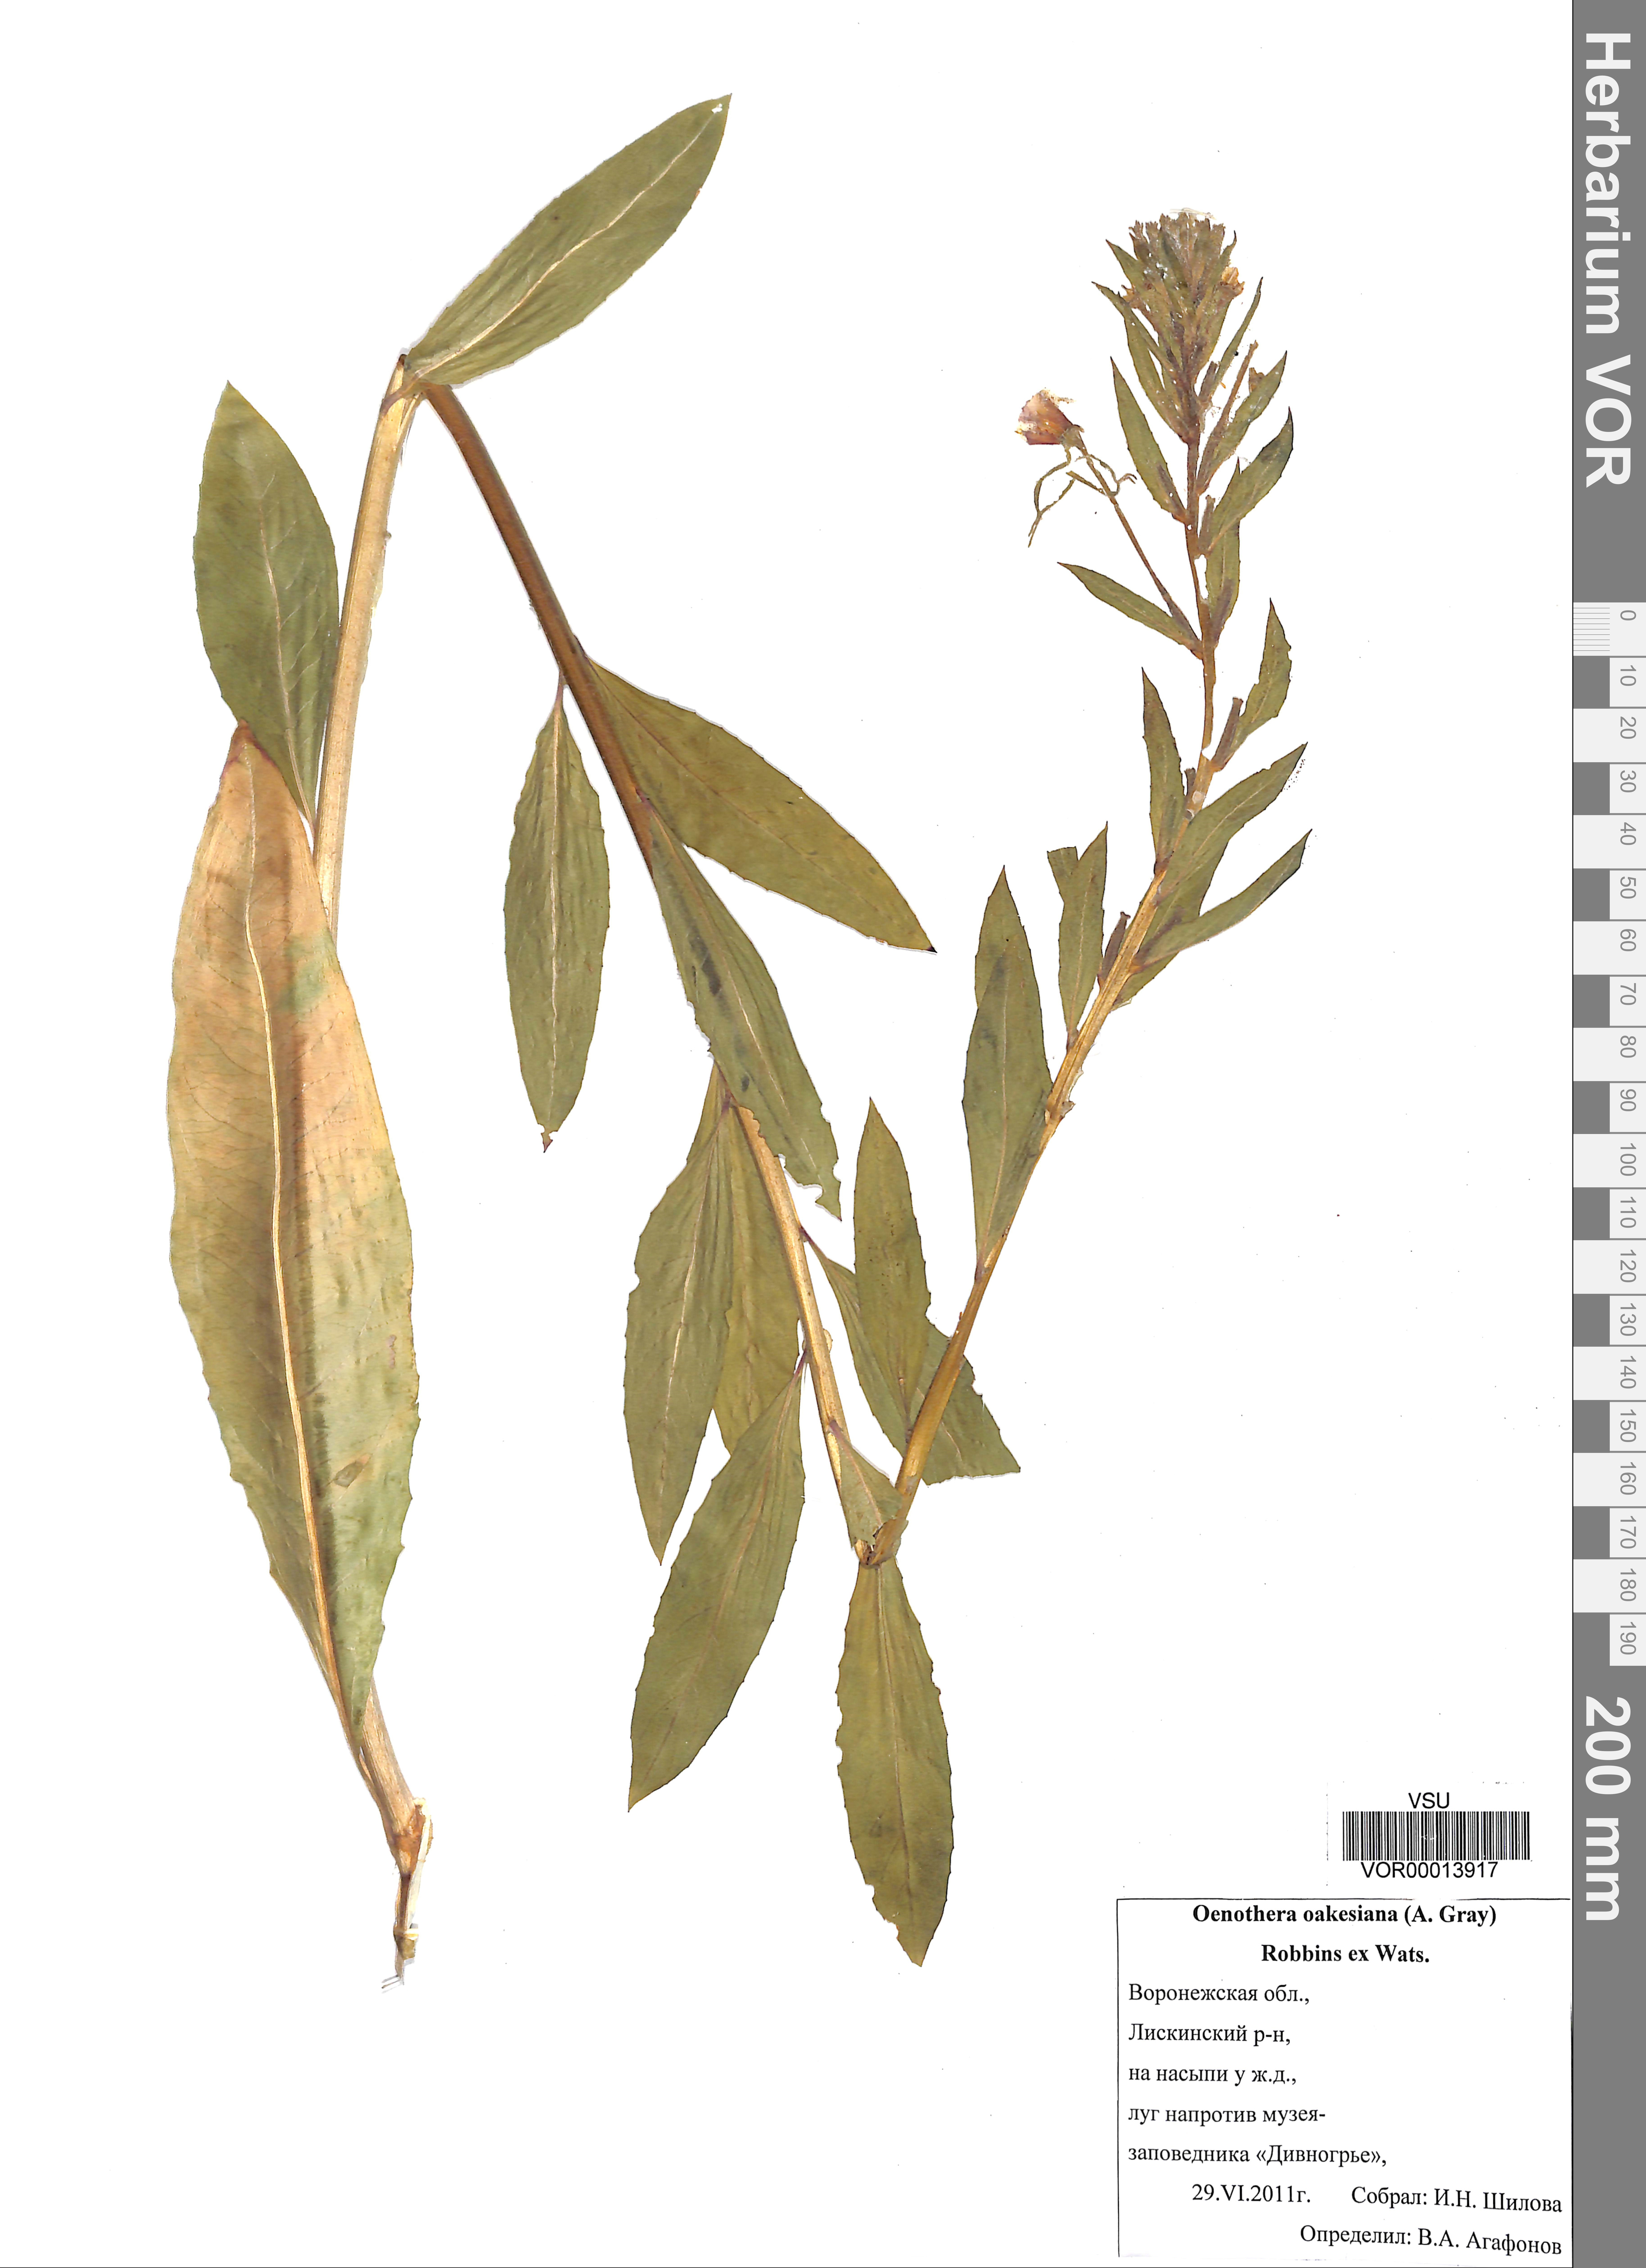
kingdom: Plantae
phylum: Tracheophyta
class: Magnoliopsida
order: Myrtales
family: Onagraceae
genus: Oenothera
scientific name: Oenothera oakesiana
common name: Oakes' evening-primrose
